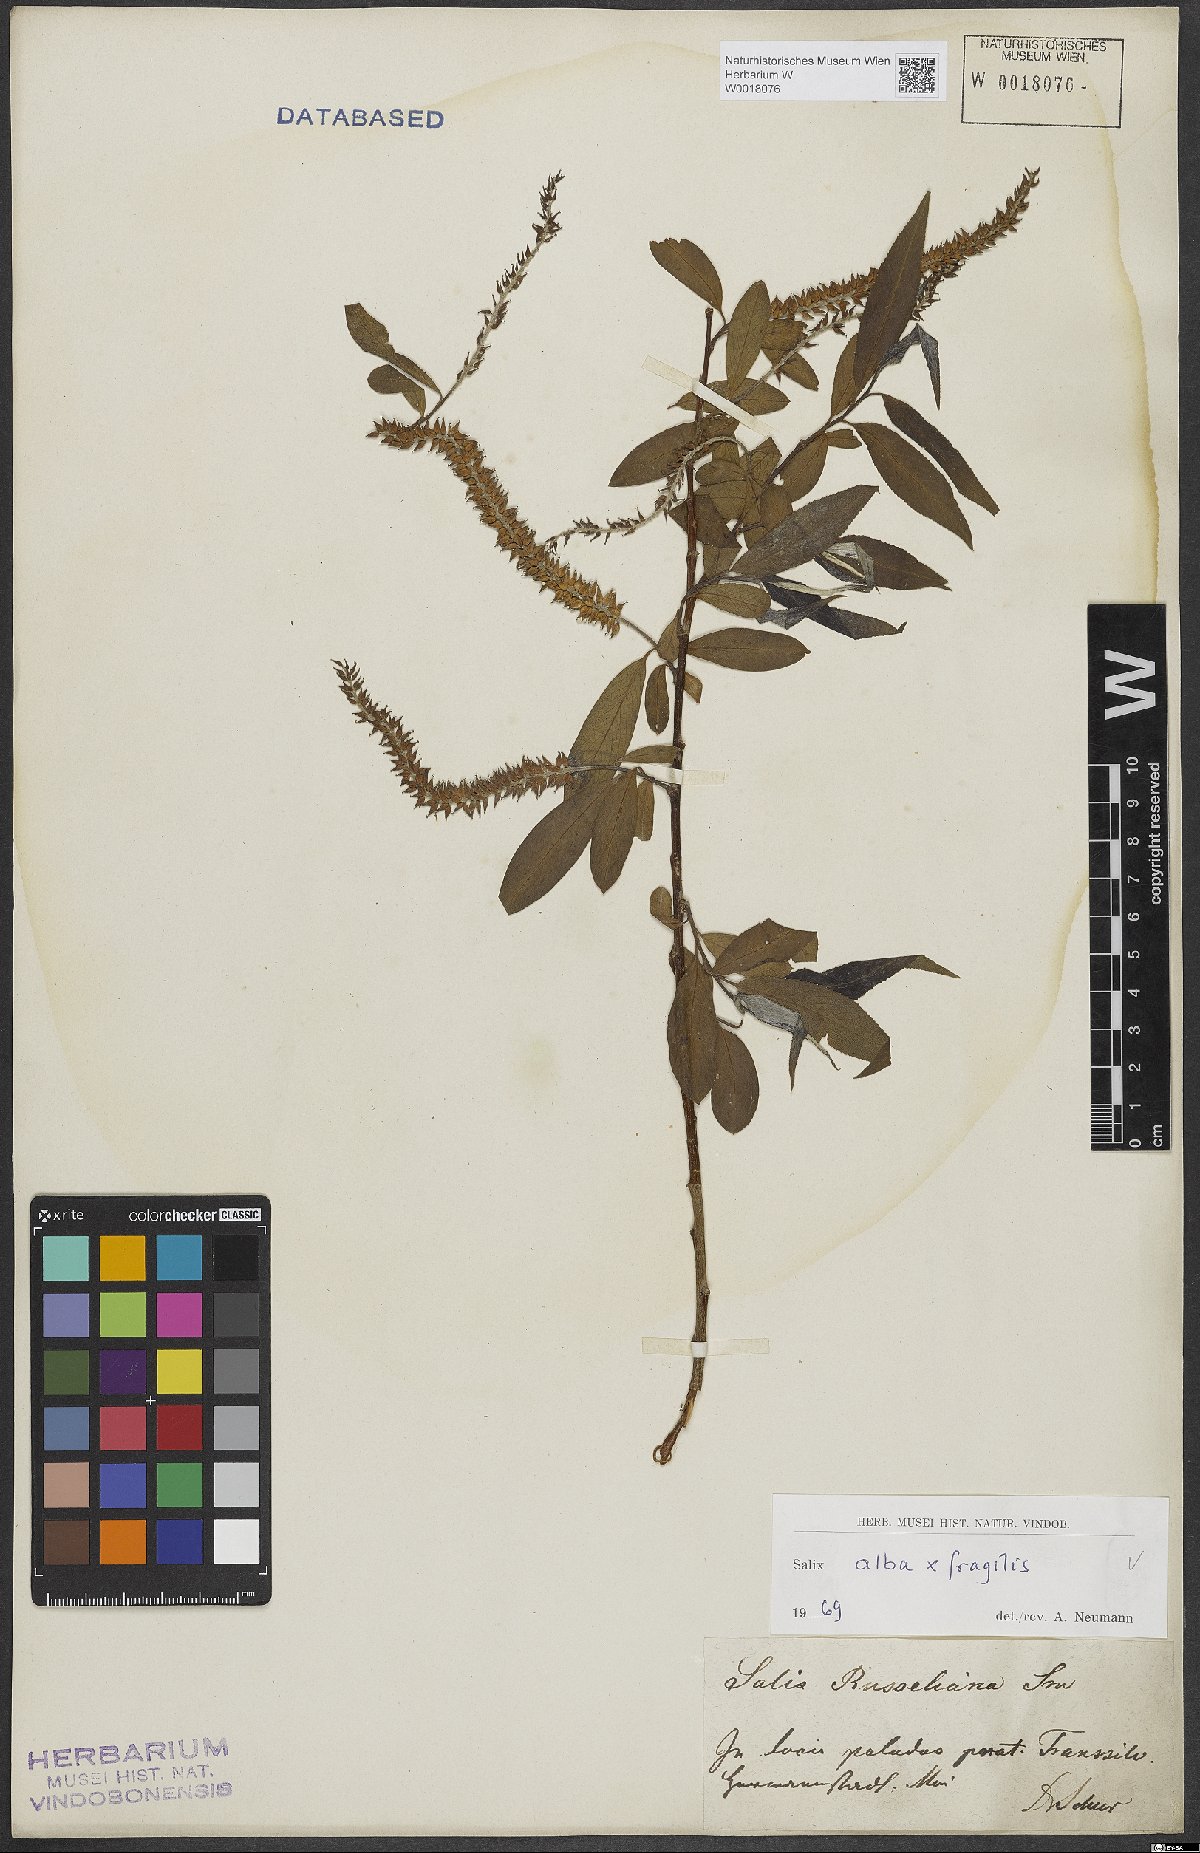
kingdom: Plantae
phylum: Tracheophyta
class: Magnoliopsida
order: Malpighiales
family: Salicaceae
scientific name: Salicaceae
